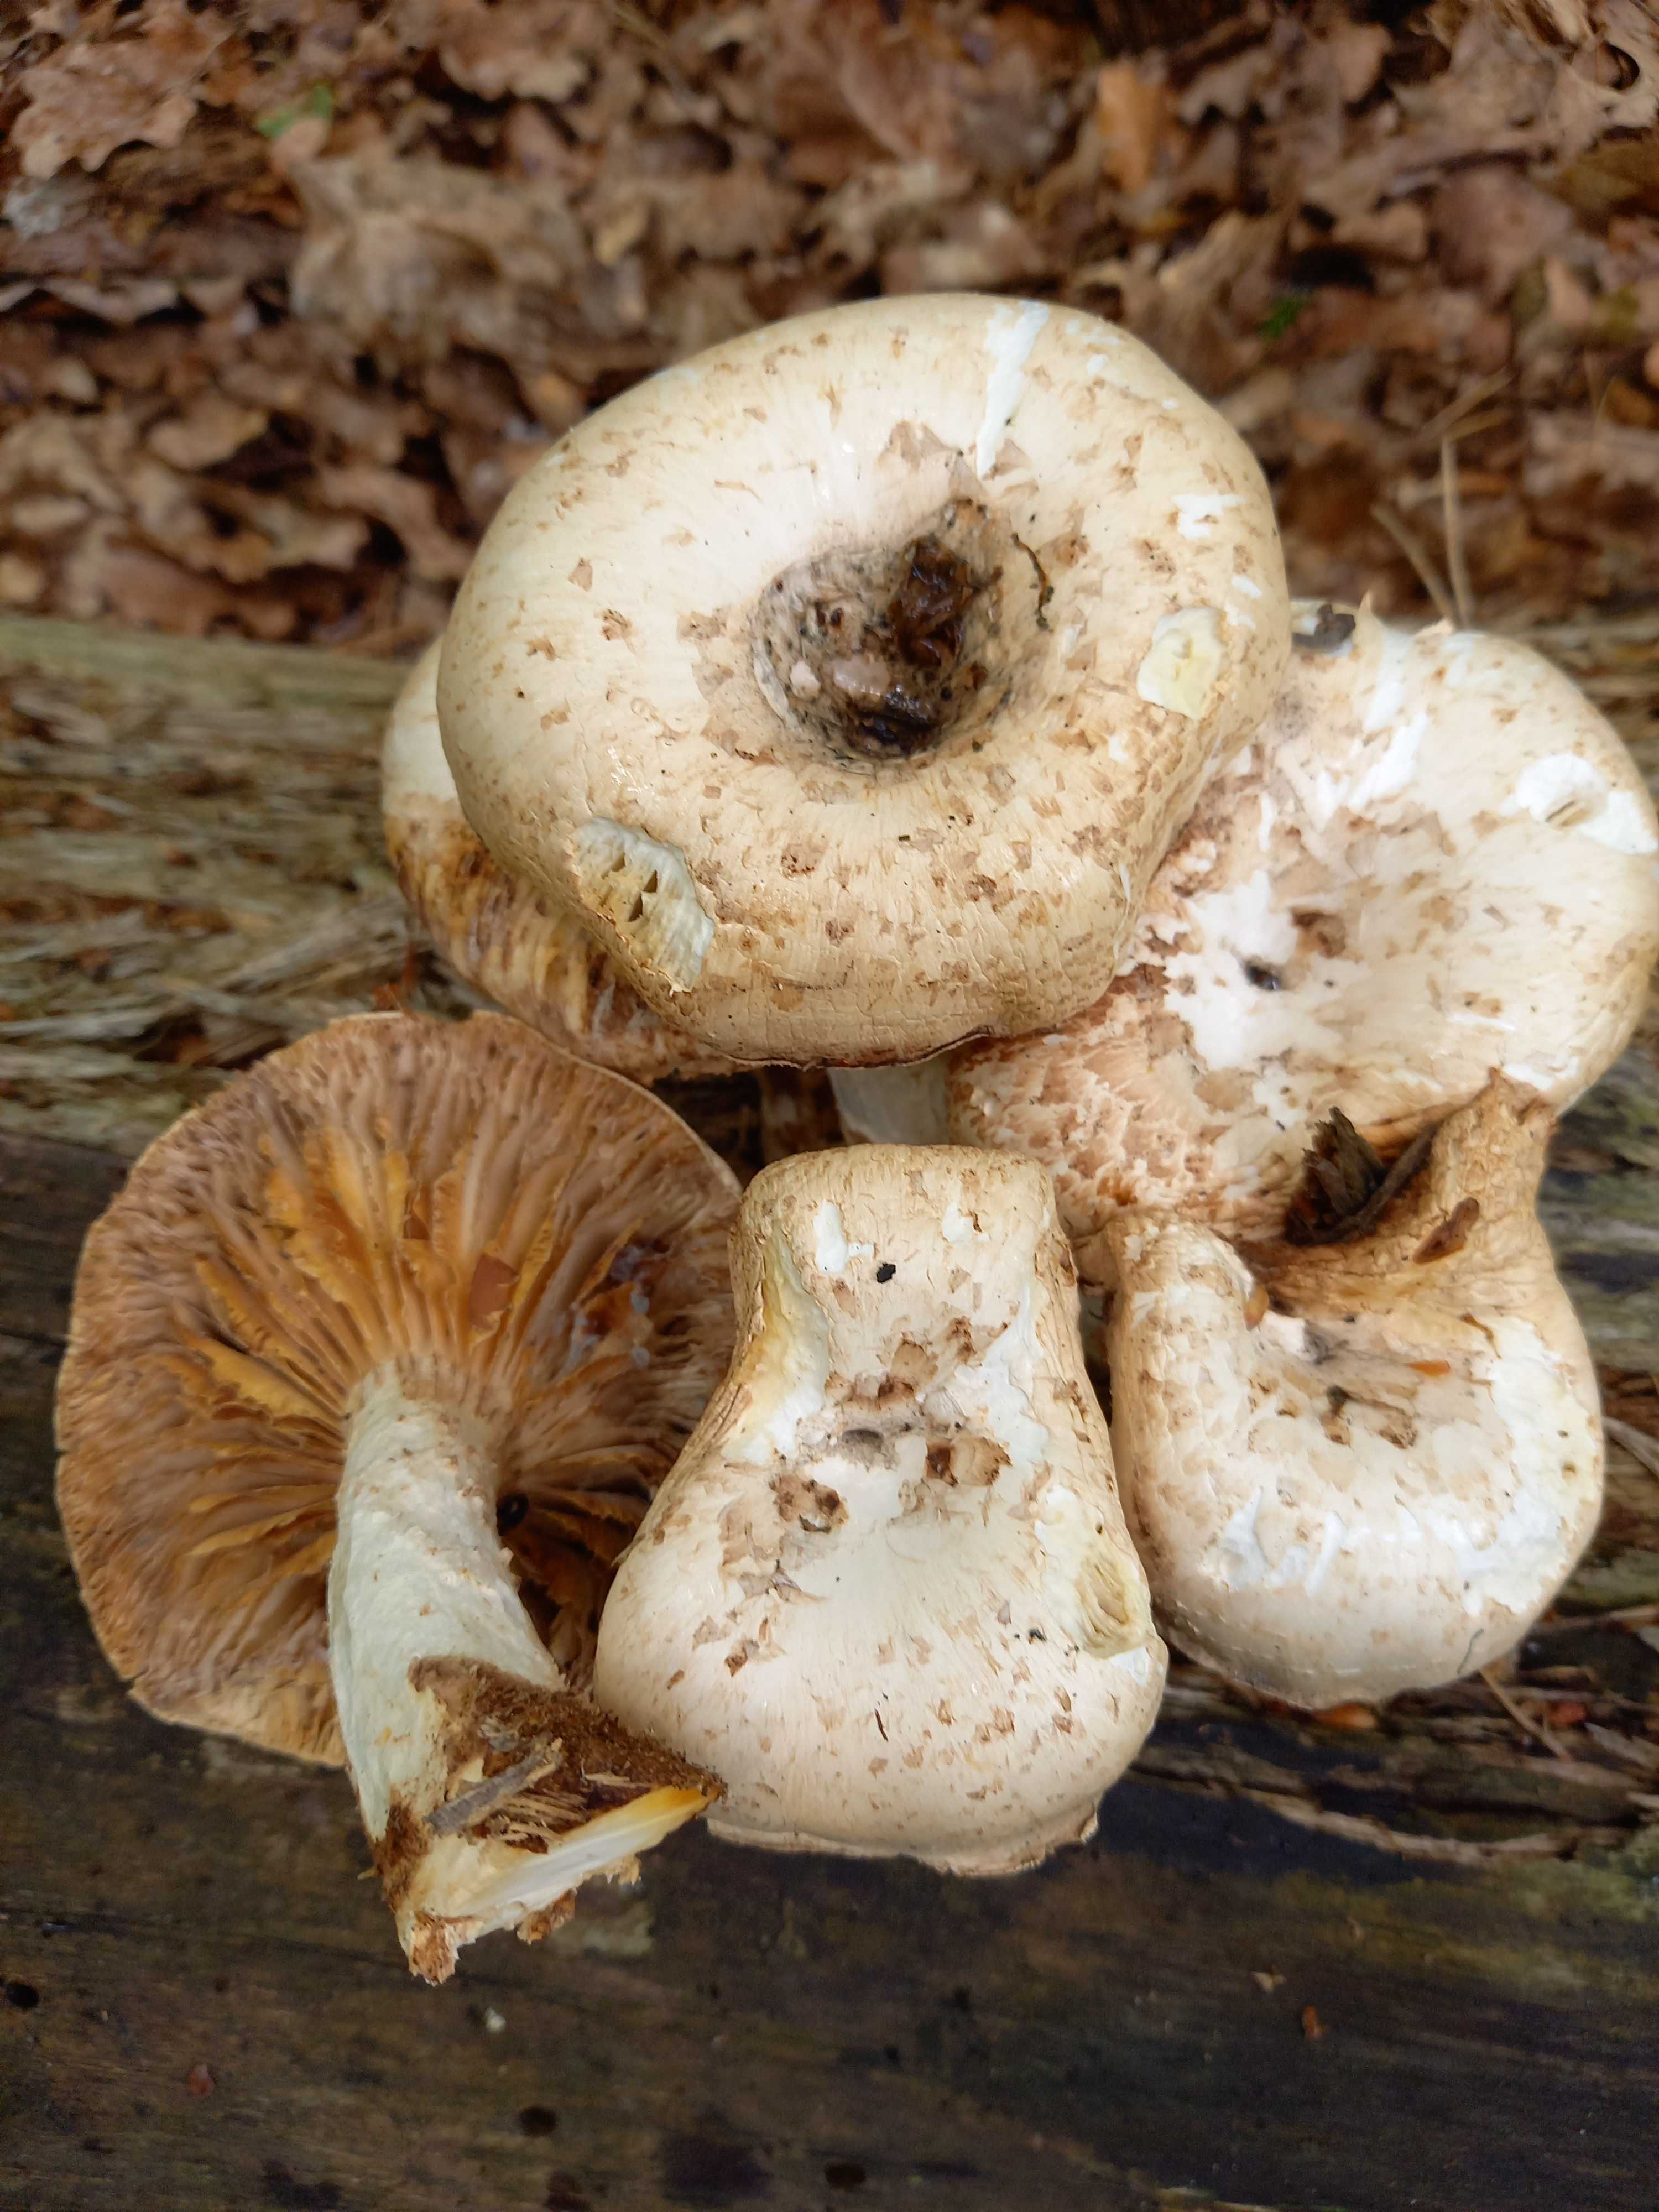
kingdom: Fungi
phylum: Basidiomycota
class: Agaricomycetes
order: Gloeophyllales
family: Gloeophyllaceae
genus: Neolentinus
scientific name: Neolentinus lepideus
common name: skællet sejhat
